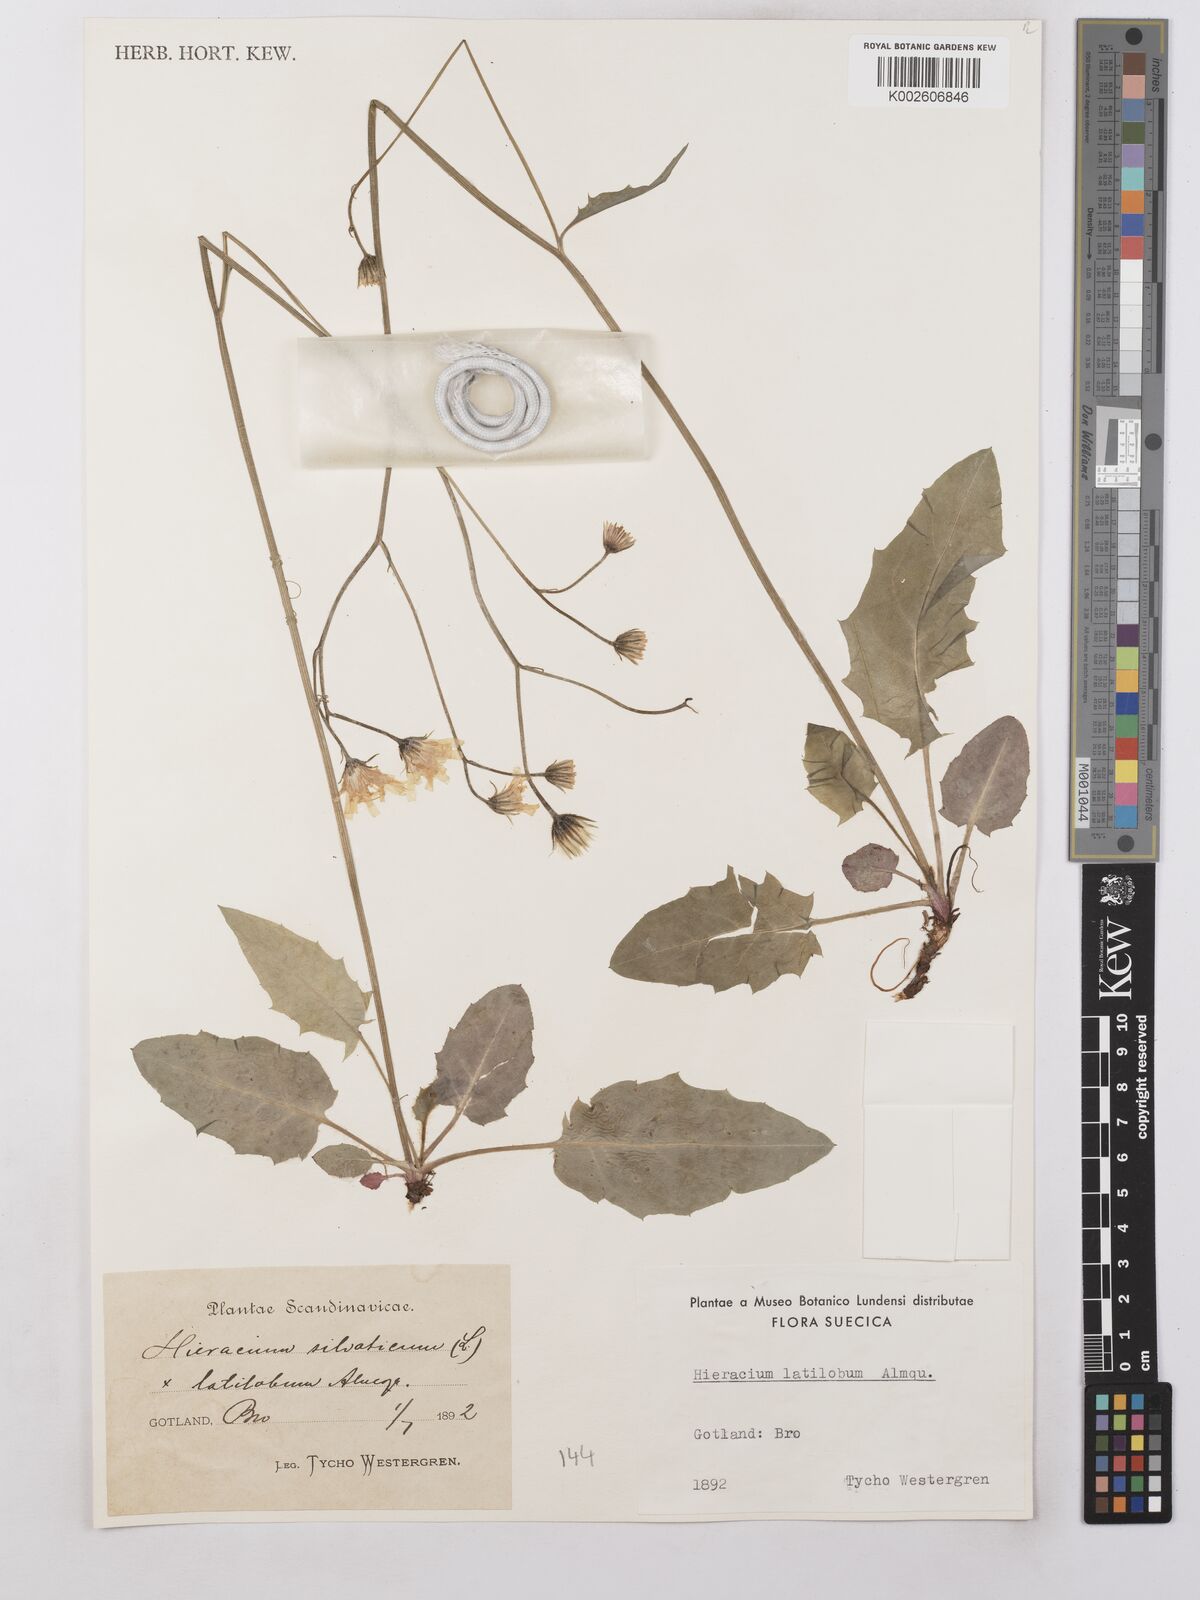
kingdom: Plantae
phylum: Tracheophyta
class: Magnoliopsida
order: Asterales
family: Asteraceae
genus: Hieracium
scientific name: Hieracium chlorellum
